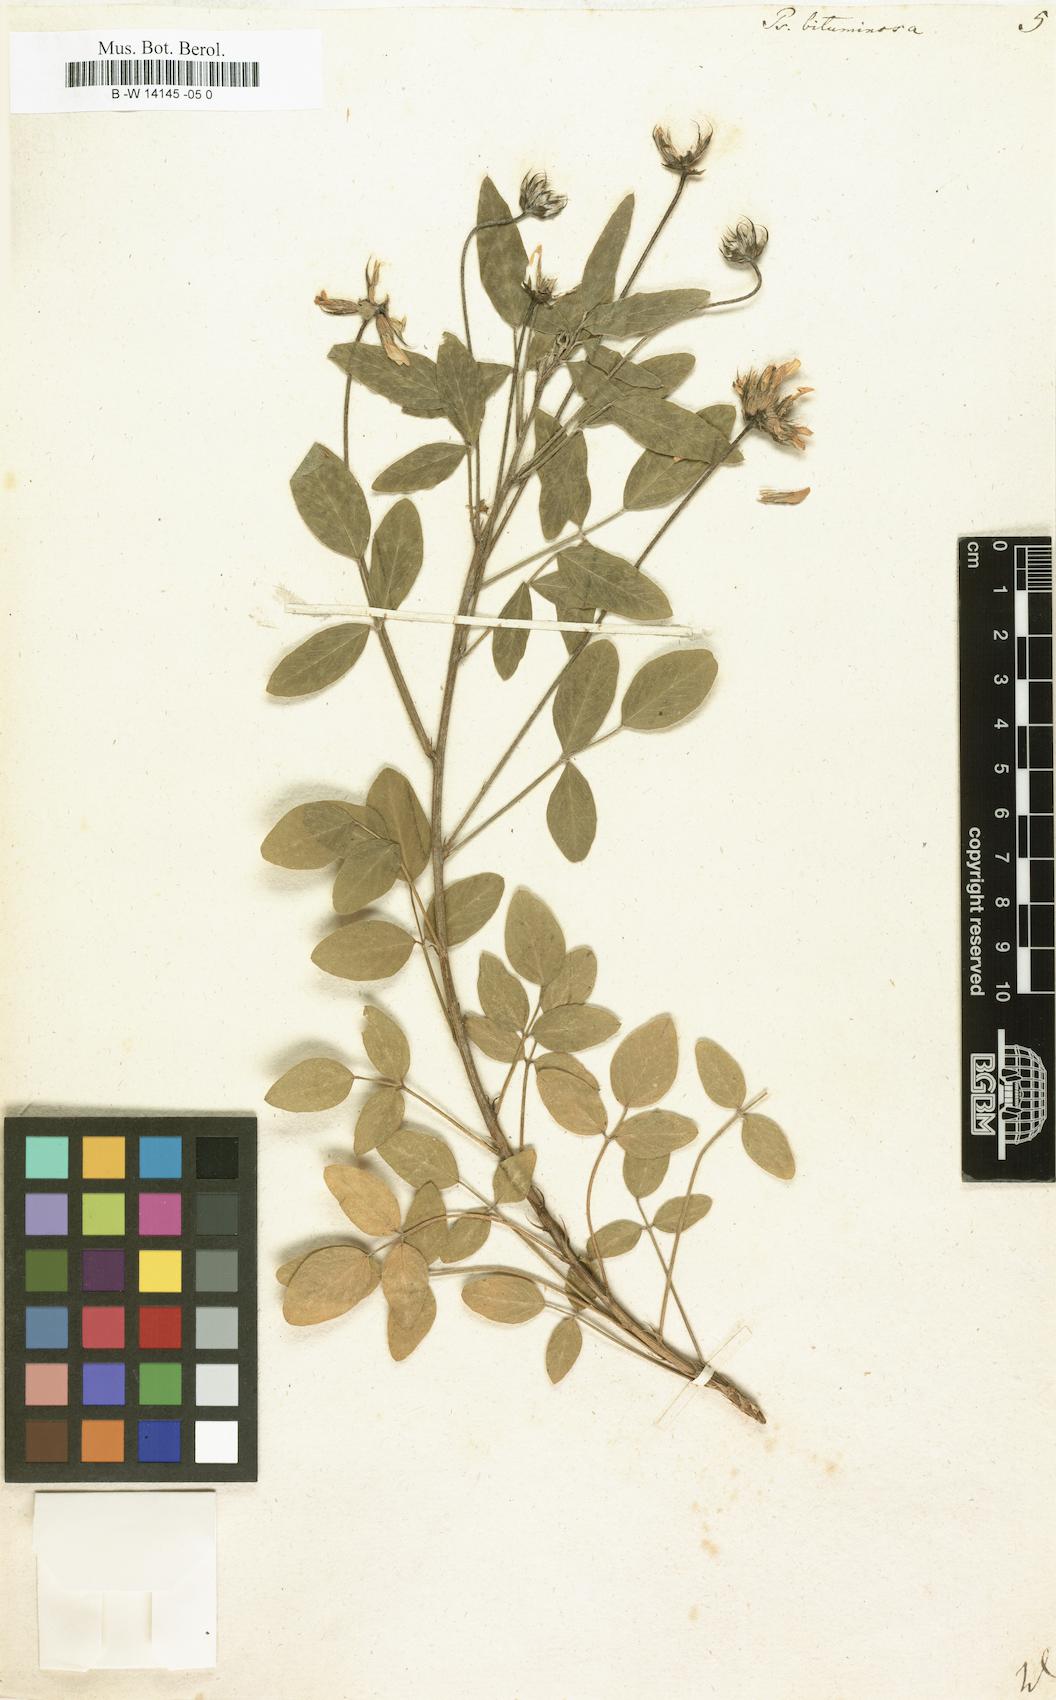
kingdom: Plantae
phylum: Tracheophyta
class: Magnoliopsida
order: Fabales
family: Fabaceae
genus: Bituminaria
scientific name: Bituminaria bituminosa
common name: Arabian pea
